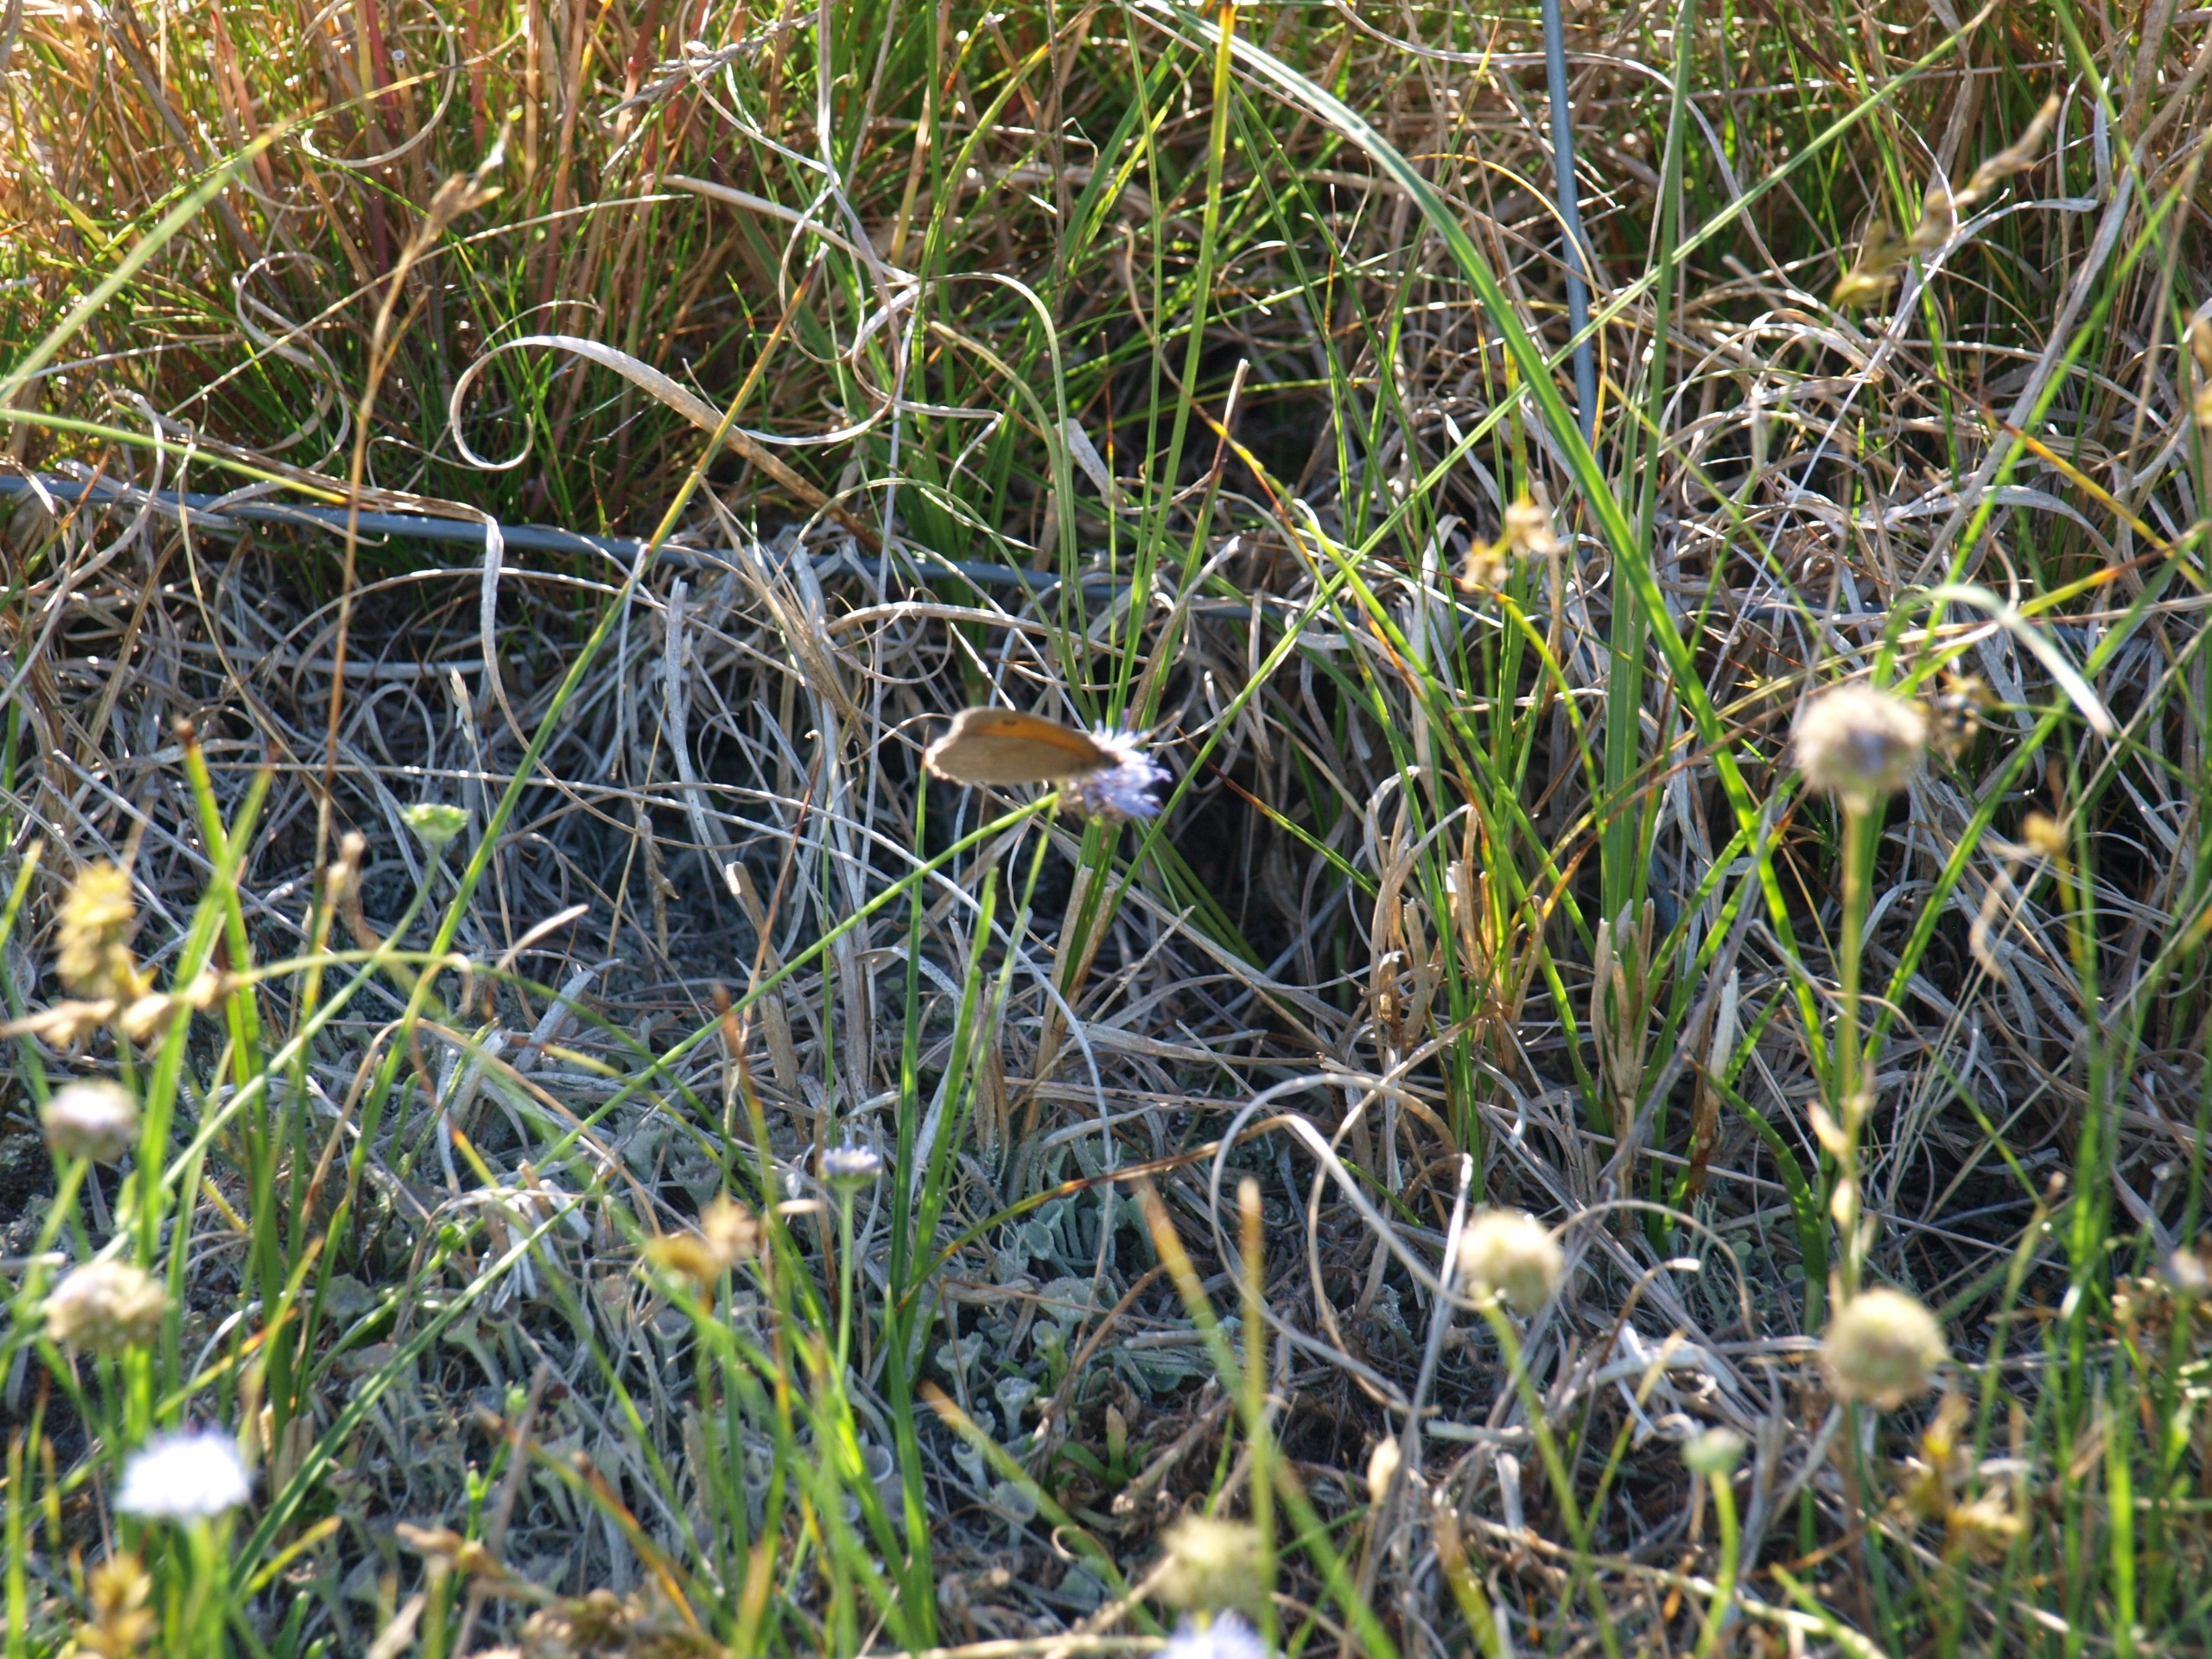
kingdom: Animalia
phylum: Arthropoda
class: Insecta
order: Lepidoptera
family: Nymphalidae
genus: Maniola
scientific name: Maniola jurtina
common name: Græsrandøje
